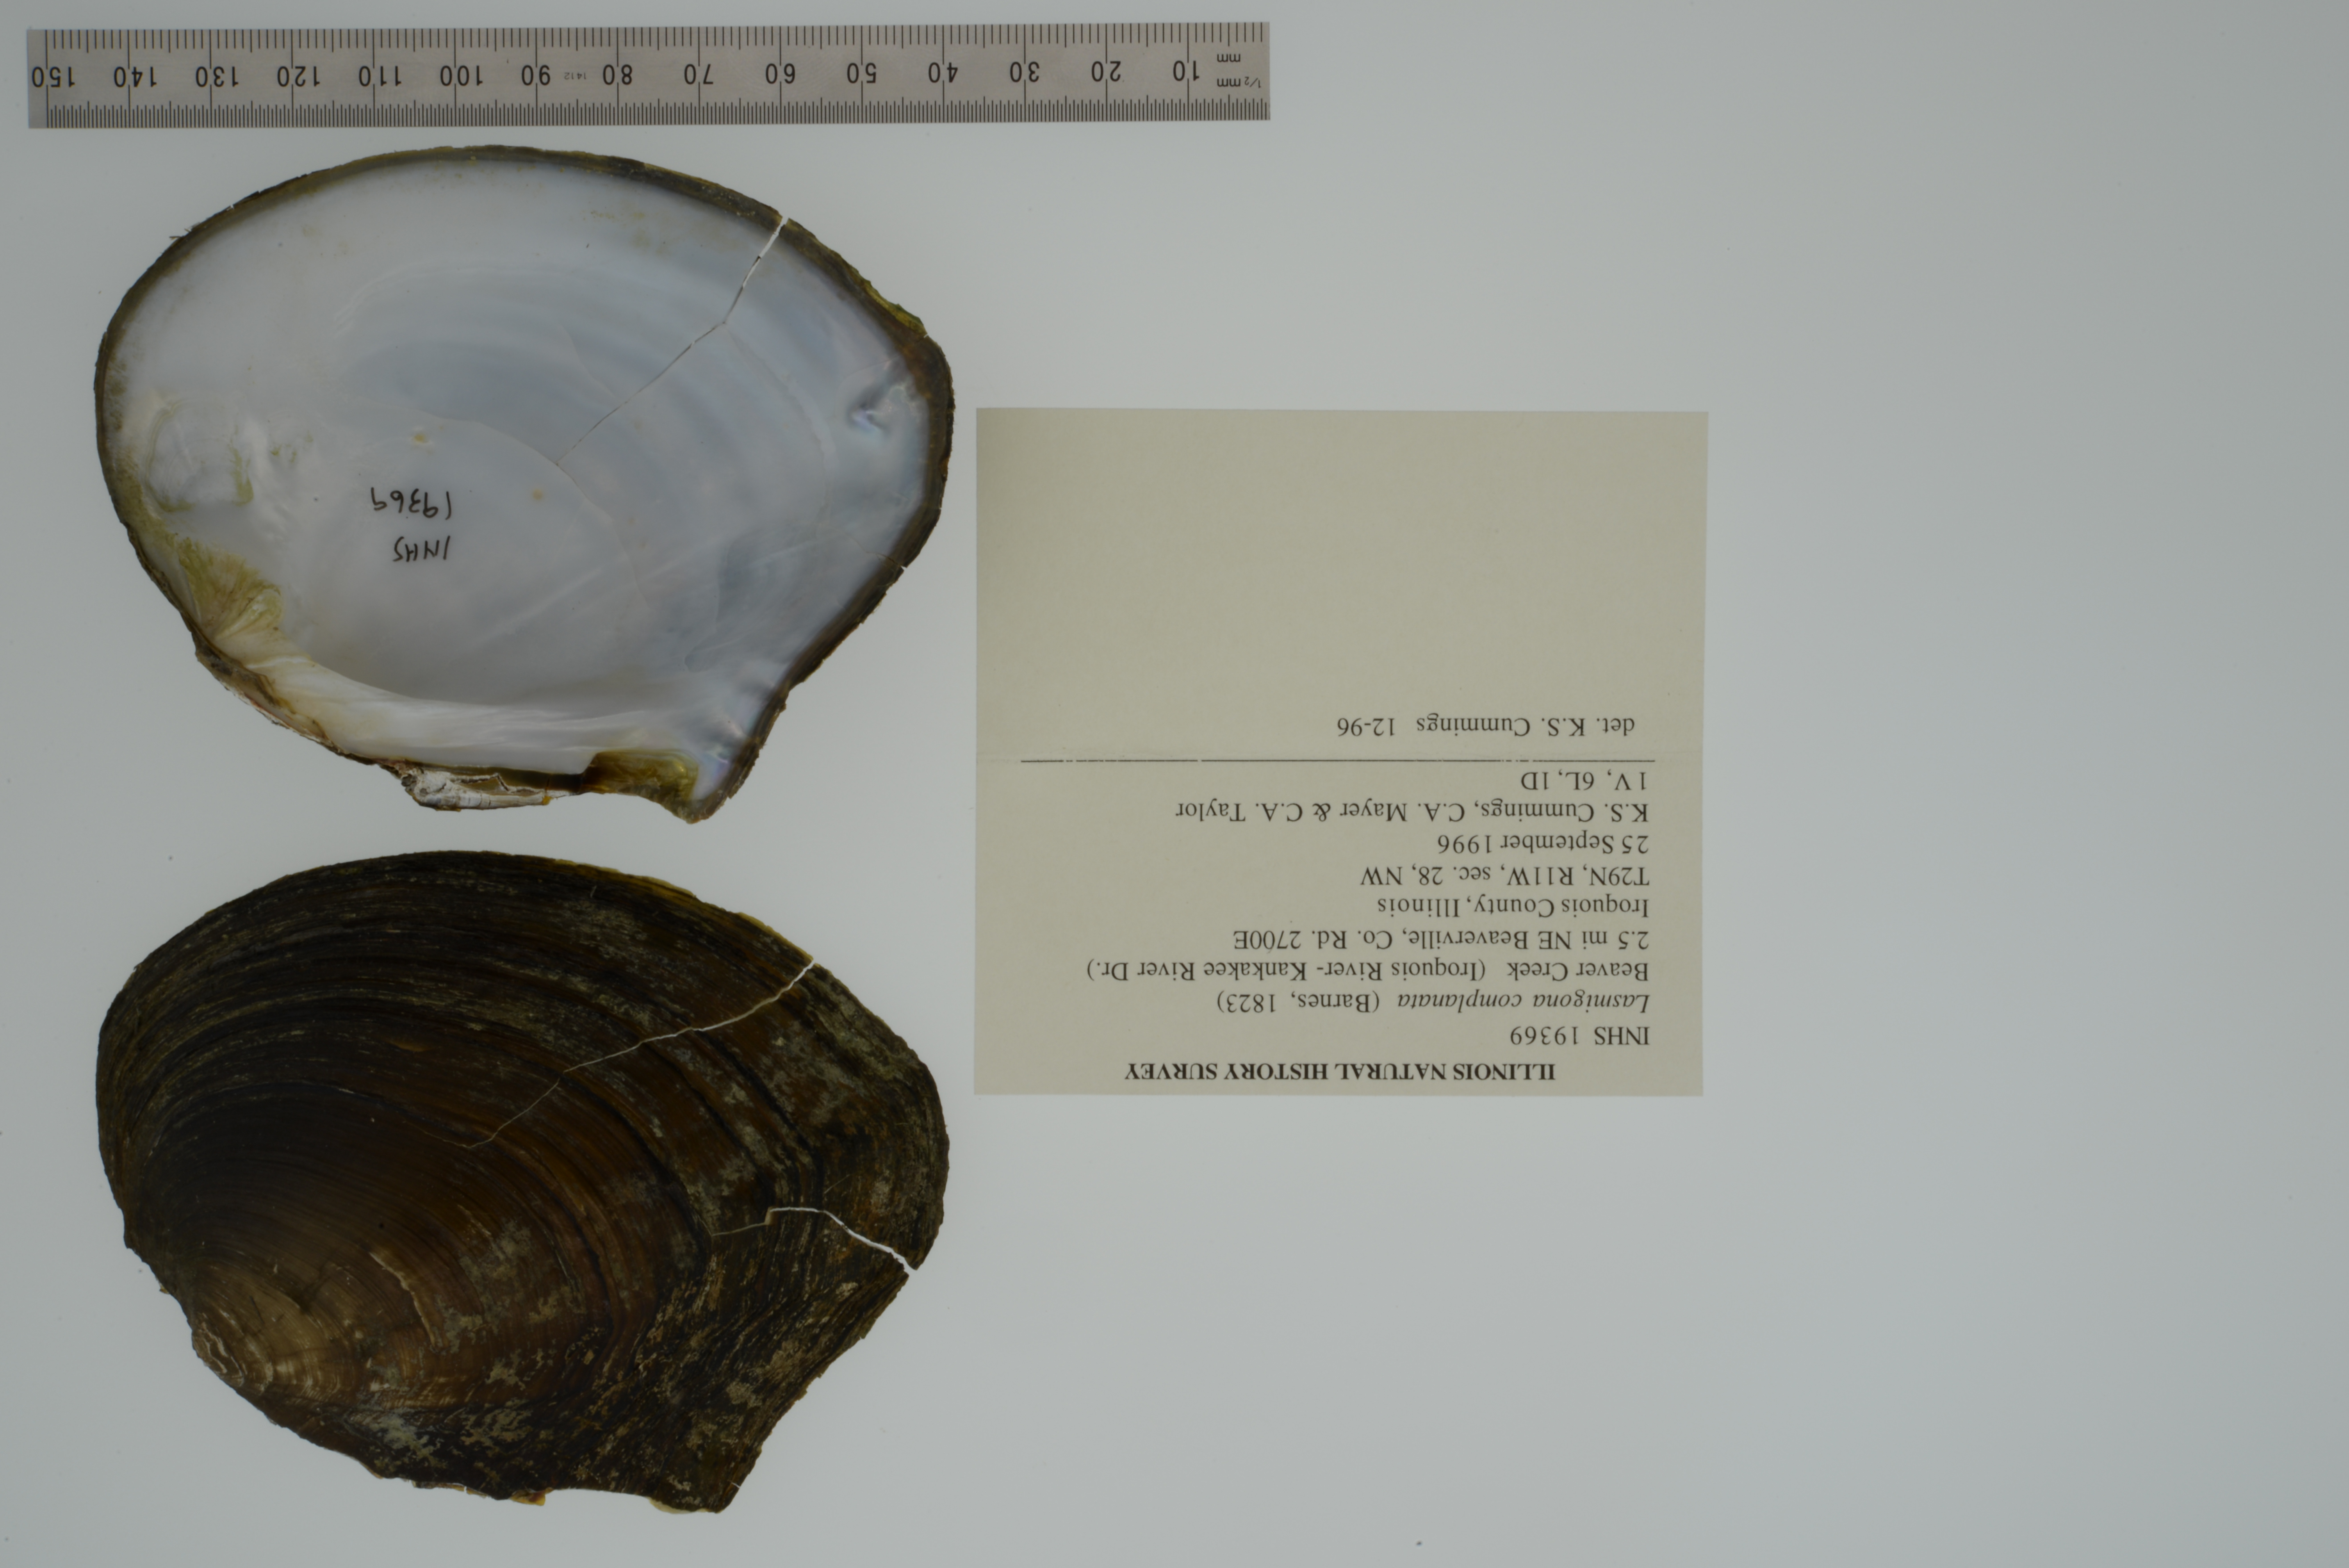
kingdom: Animalia
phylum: Mollusca
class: Bivalvia
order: Unionida
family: Unionidae
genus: Lasmigona
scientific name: Lasmigona complanata
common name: White heelsplitter
